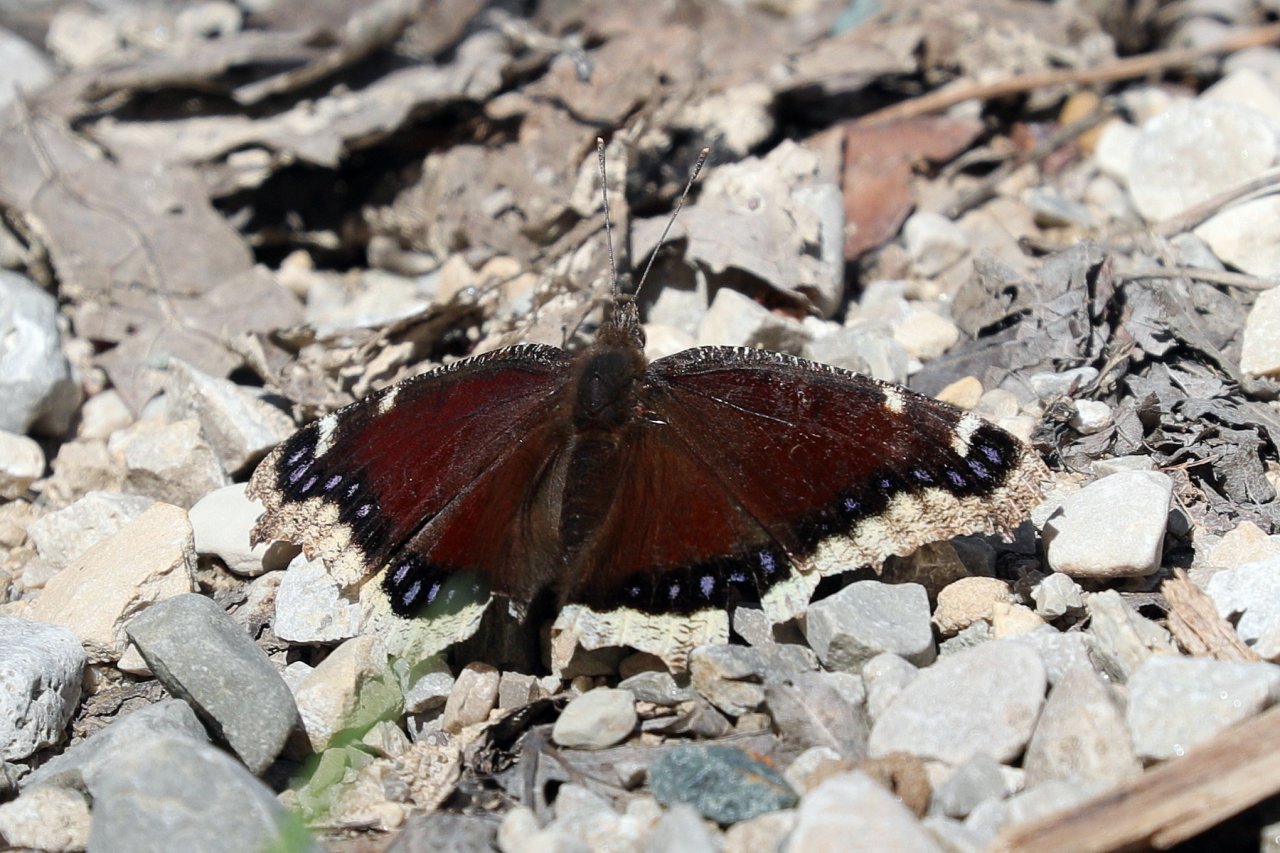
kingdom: Animalia
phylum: Arthropoda
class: Insecta
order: Lepidoptera
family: Nymphalidae
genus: Nymphalis
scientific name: Nymphalis antiopa
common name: Mourning Cloak
